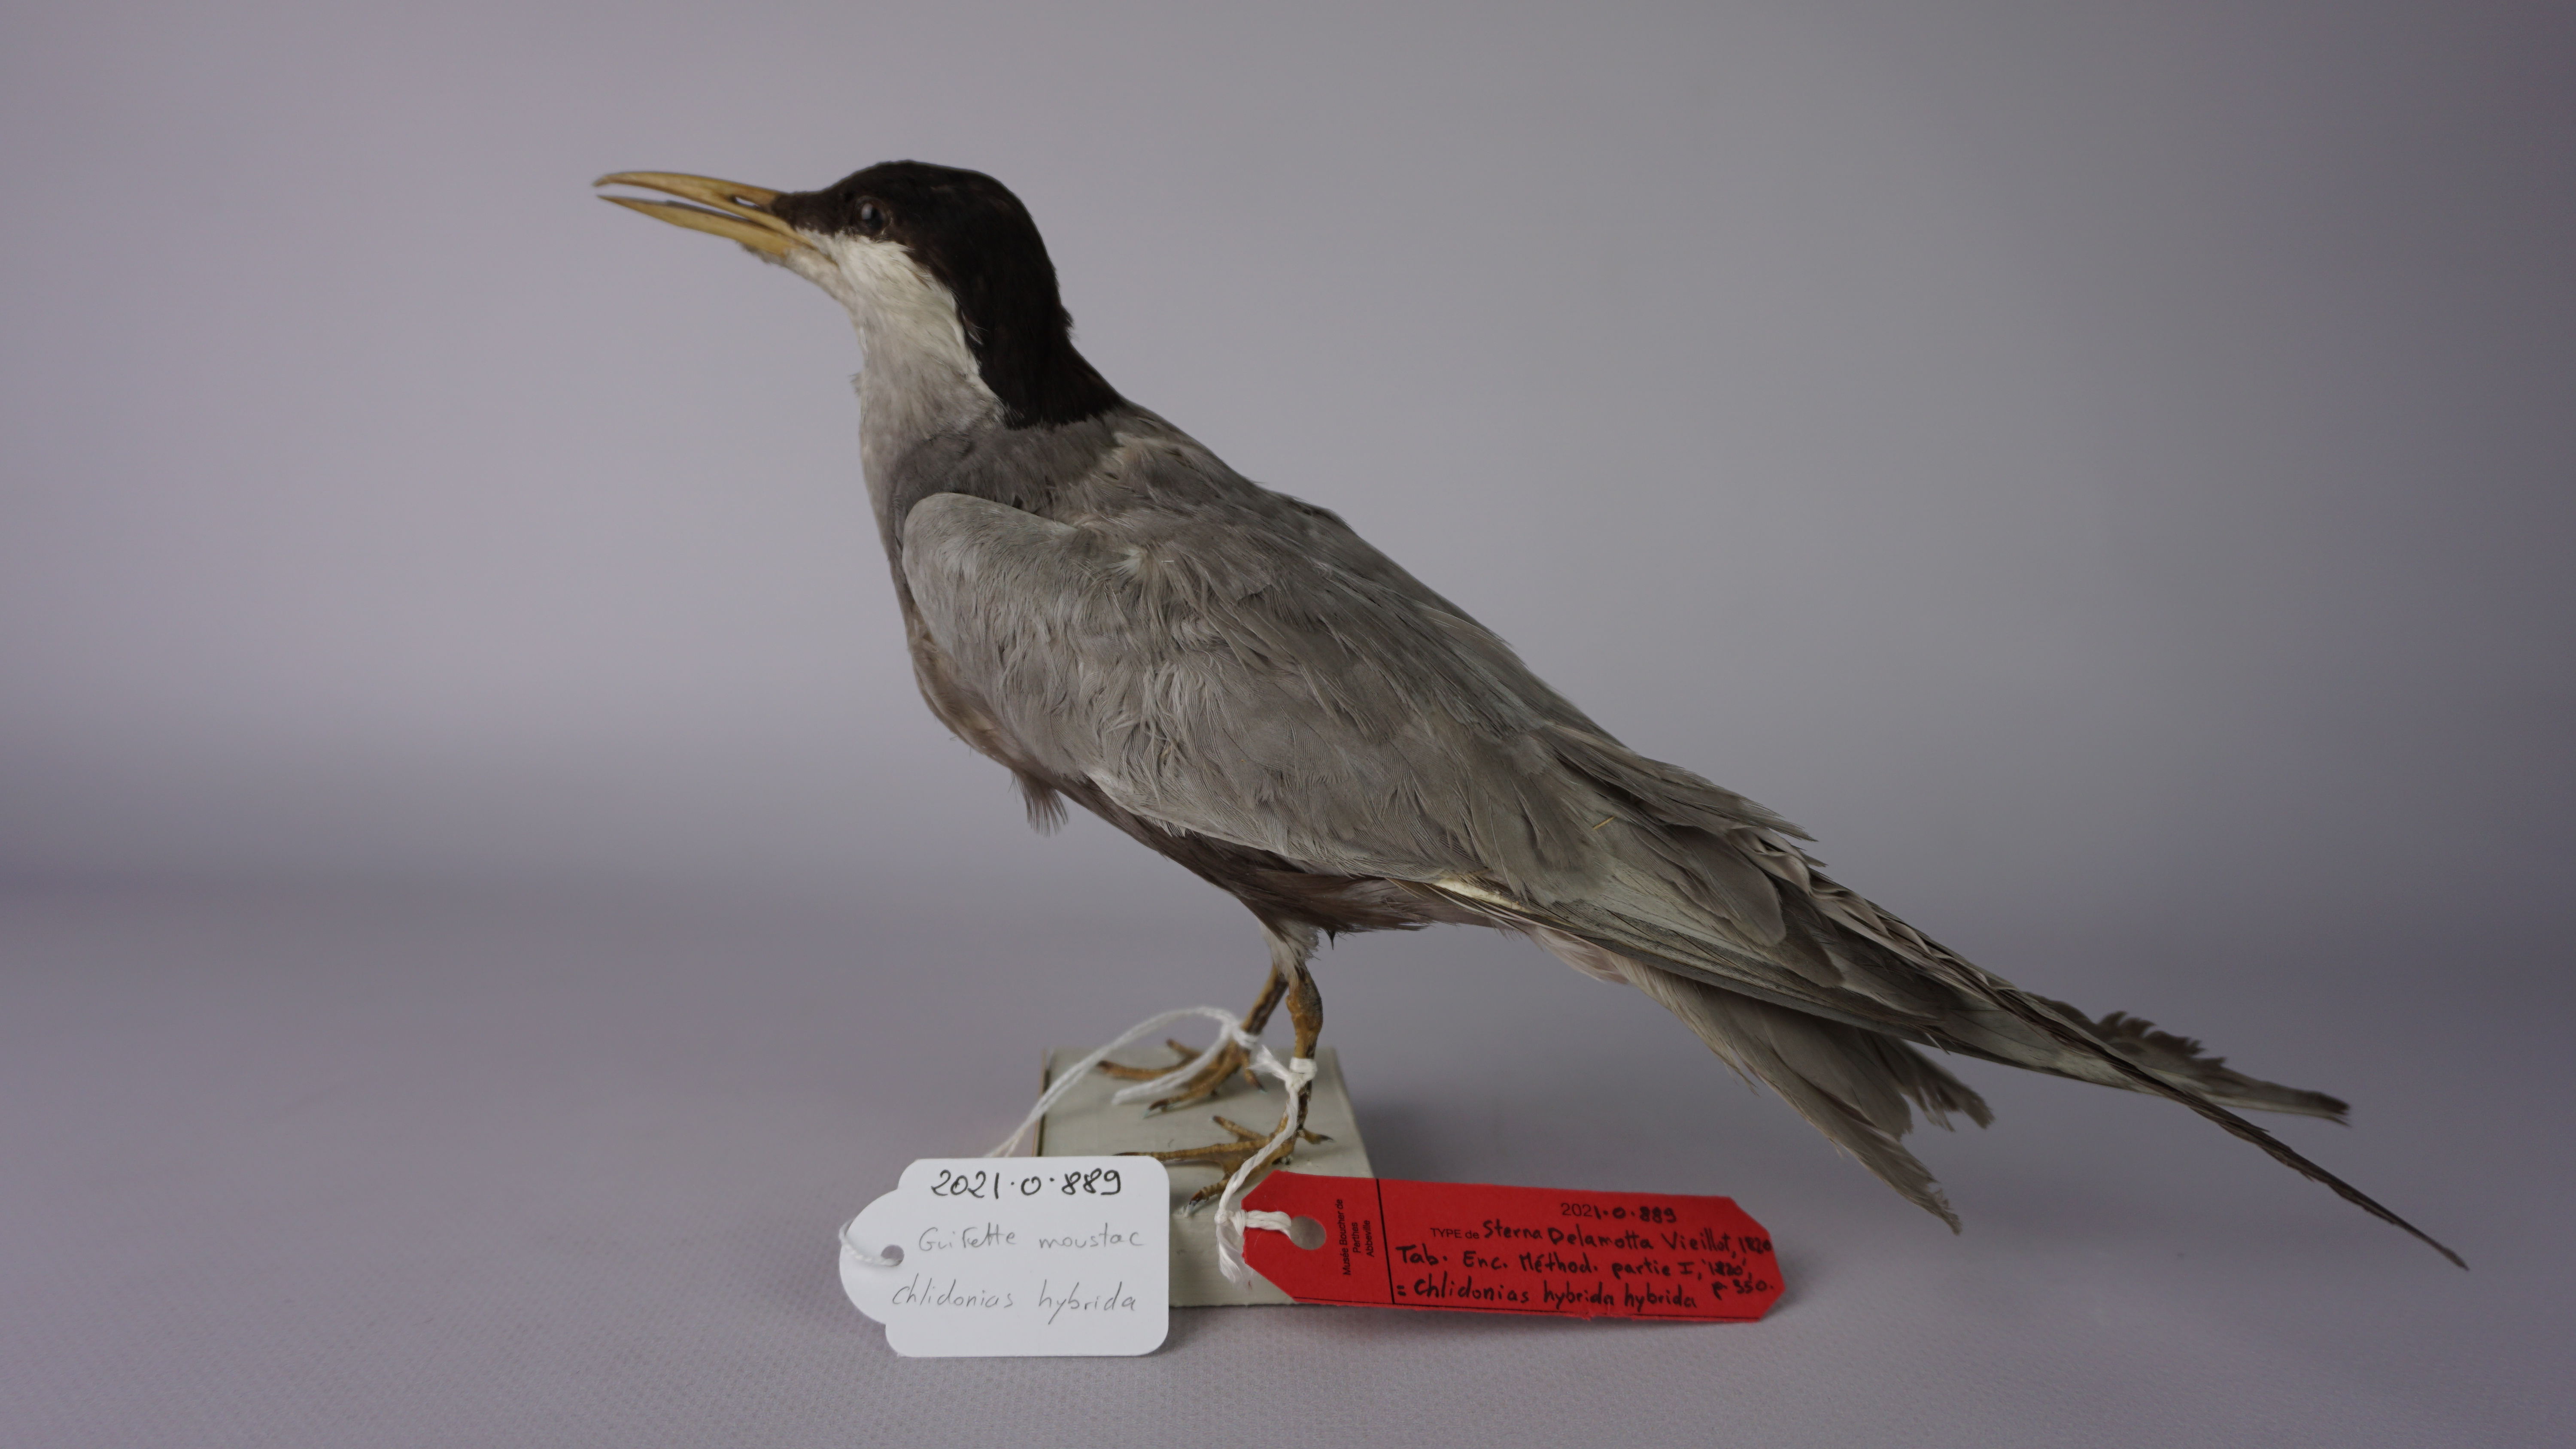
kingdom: Animalia
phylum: Chordata
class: Aves
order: Charadriiformes
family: Laridae
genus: Chlidonias
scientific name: Chlidonias hybrida
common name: Whiskered tern
